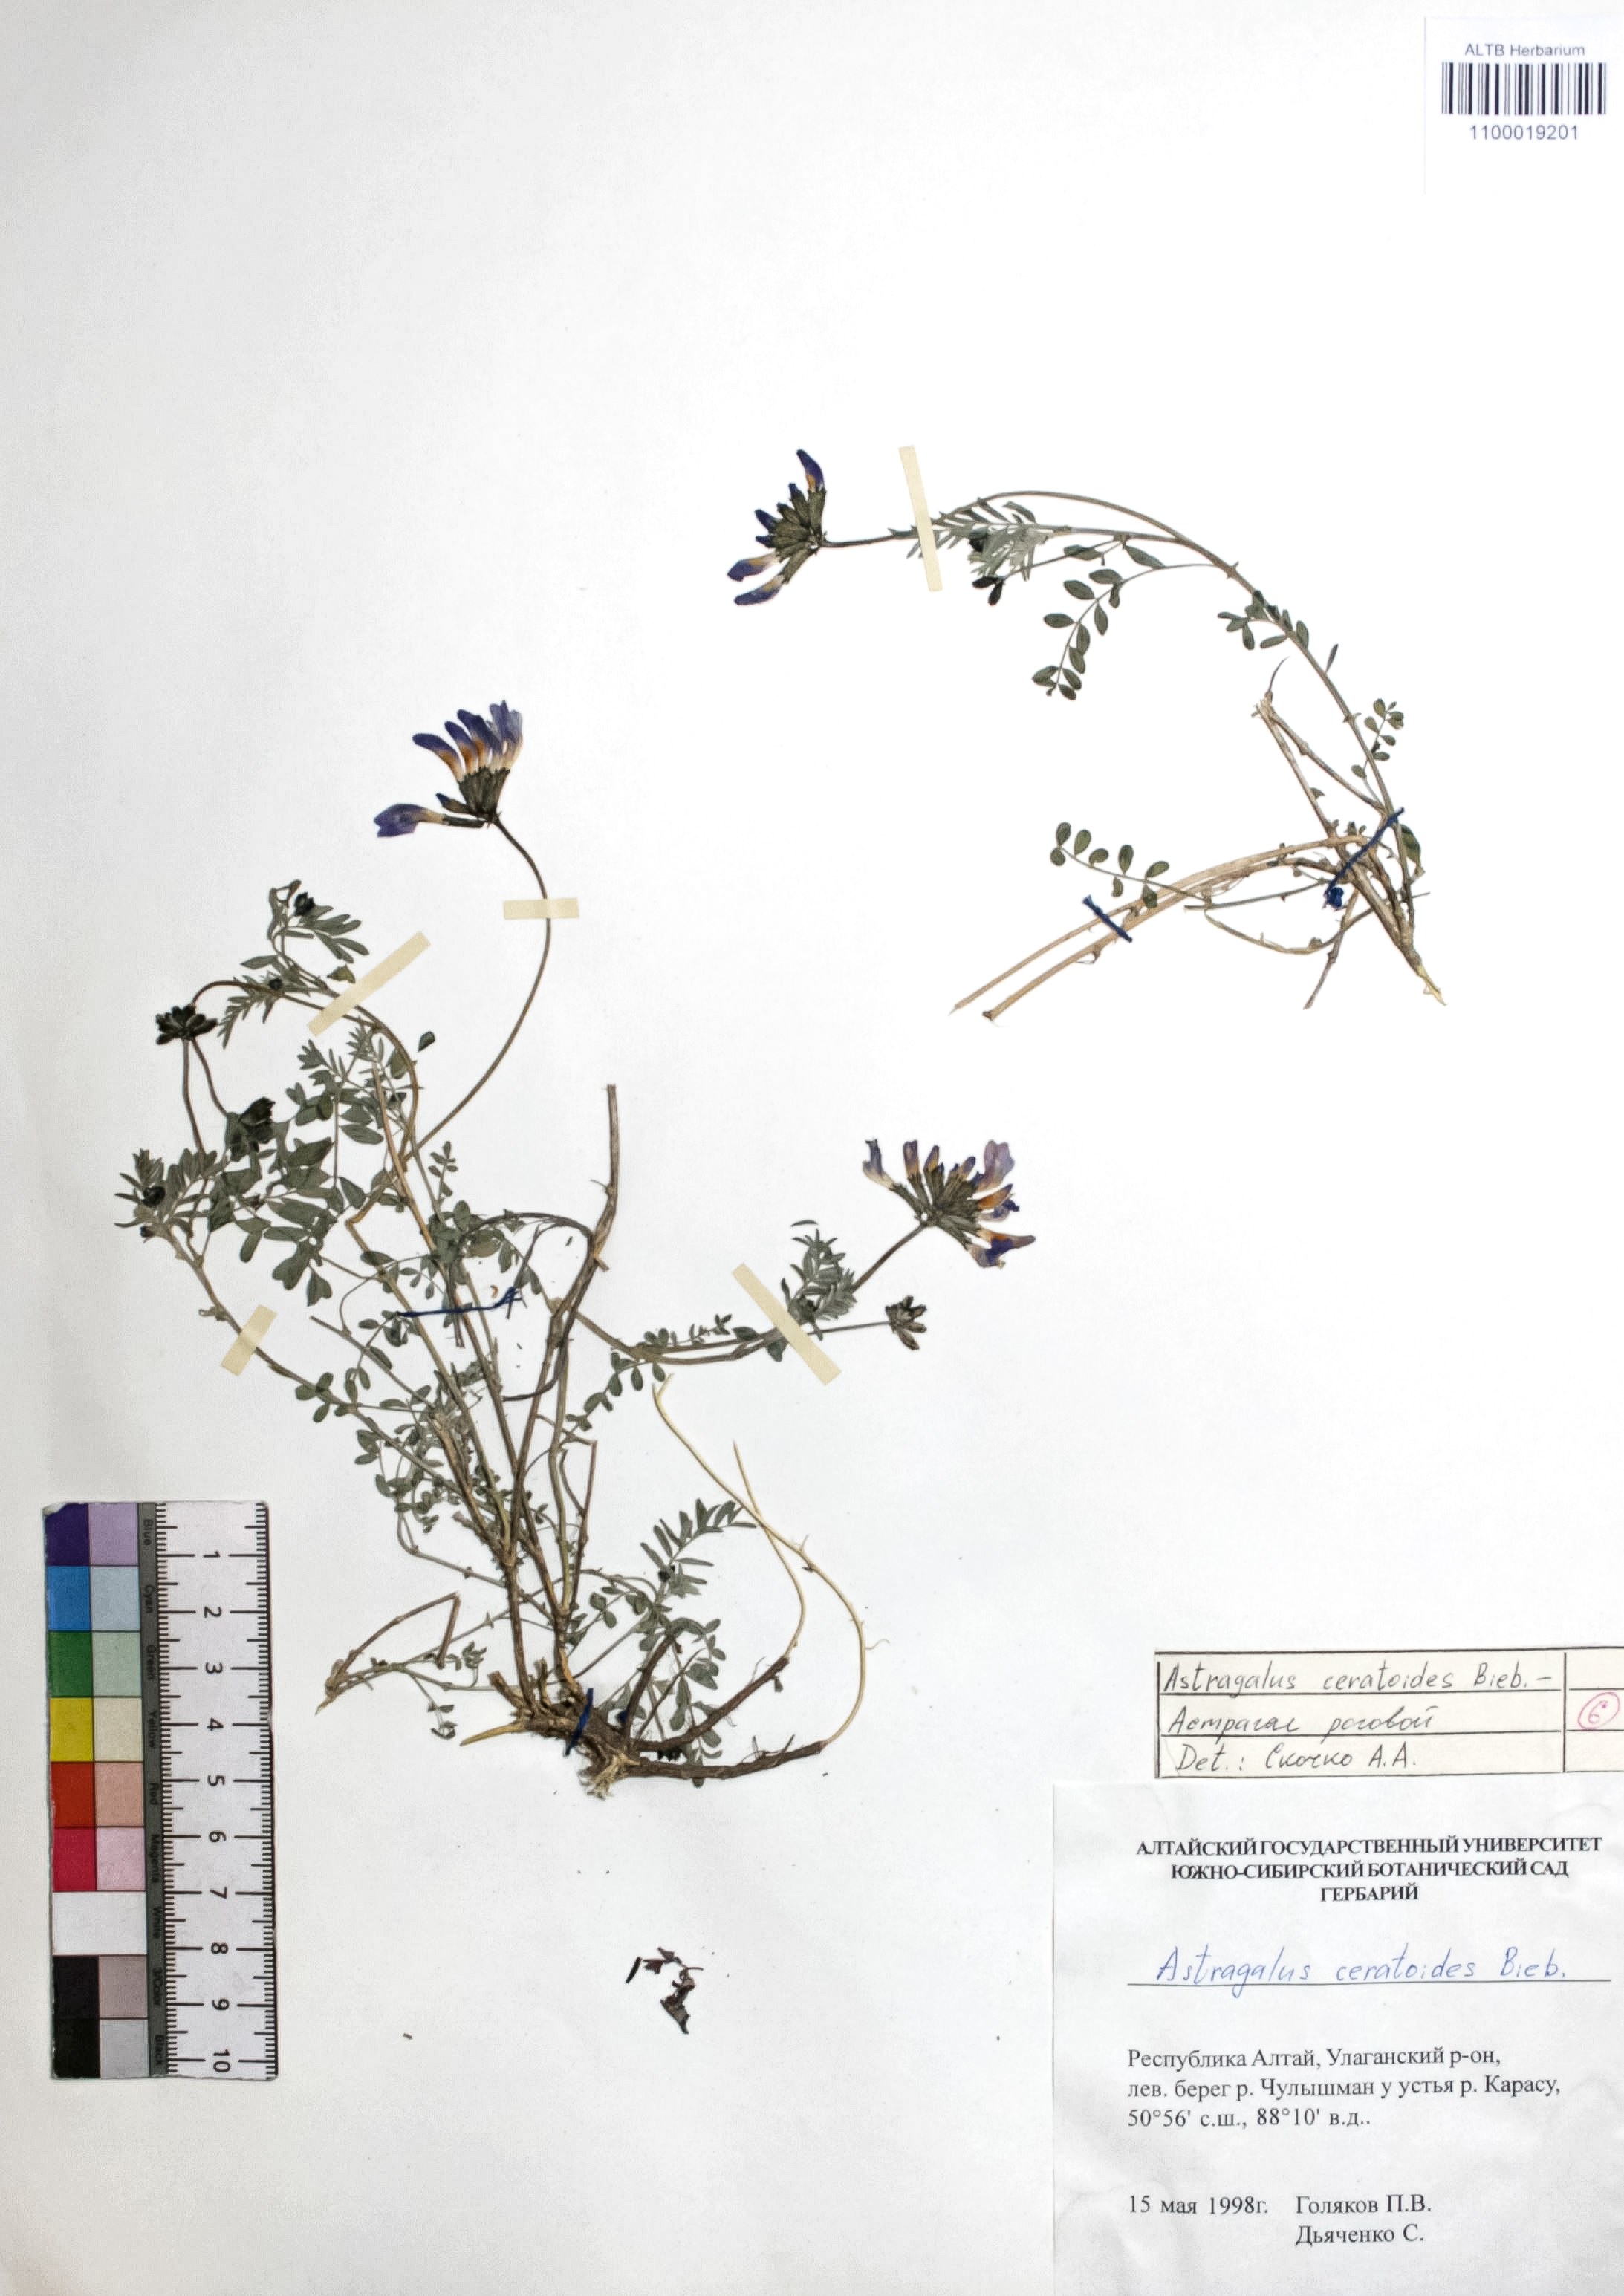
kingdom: Plantae
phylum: Tracheophyta
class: Magnoliopsida
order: Fabales
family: Fabaceae
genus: Astragalus
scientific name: Astragalus ceratoides
